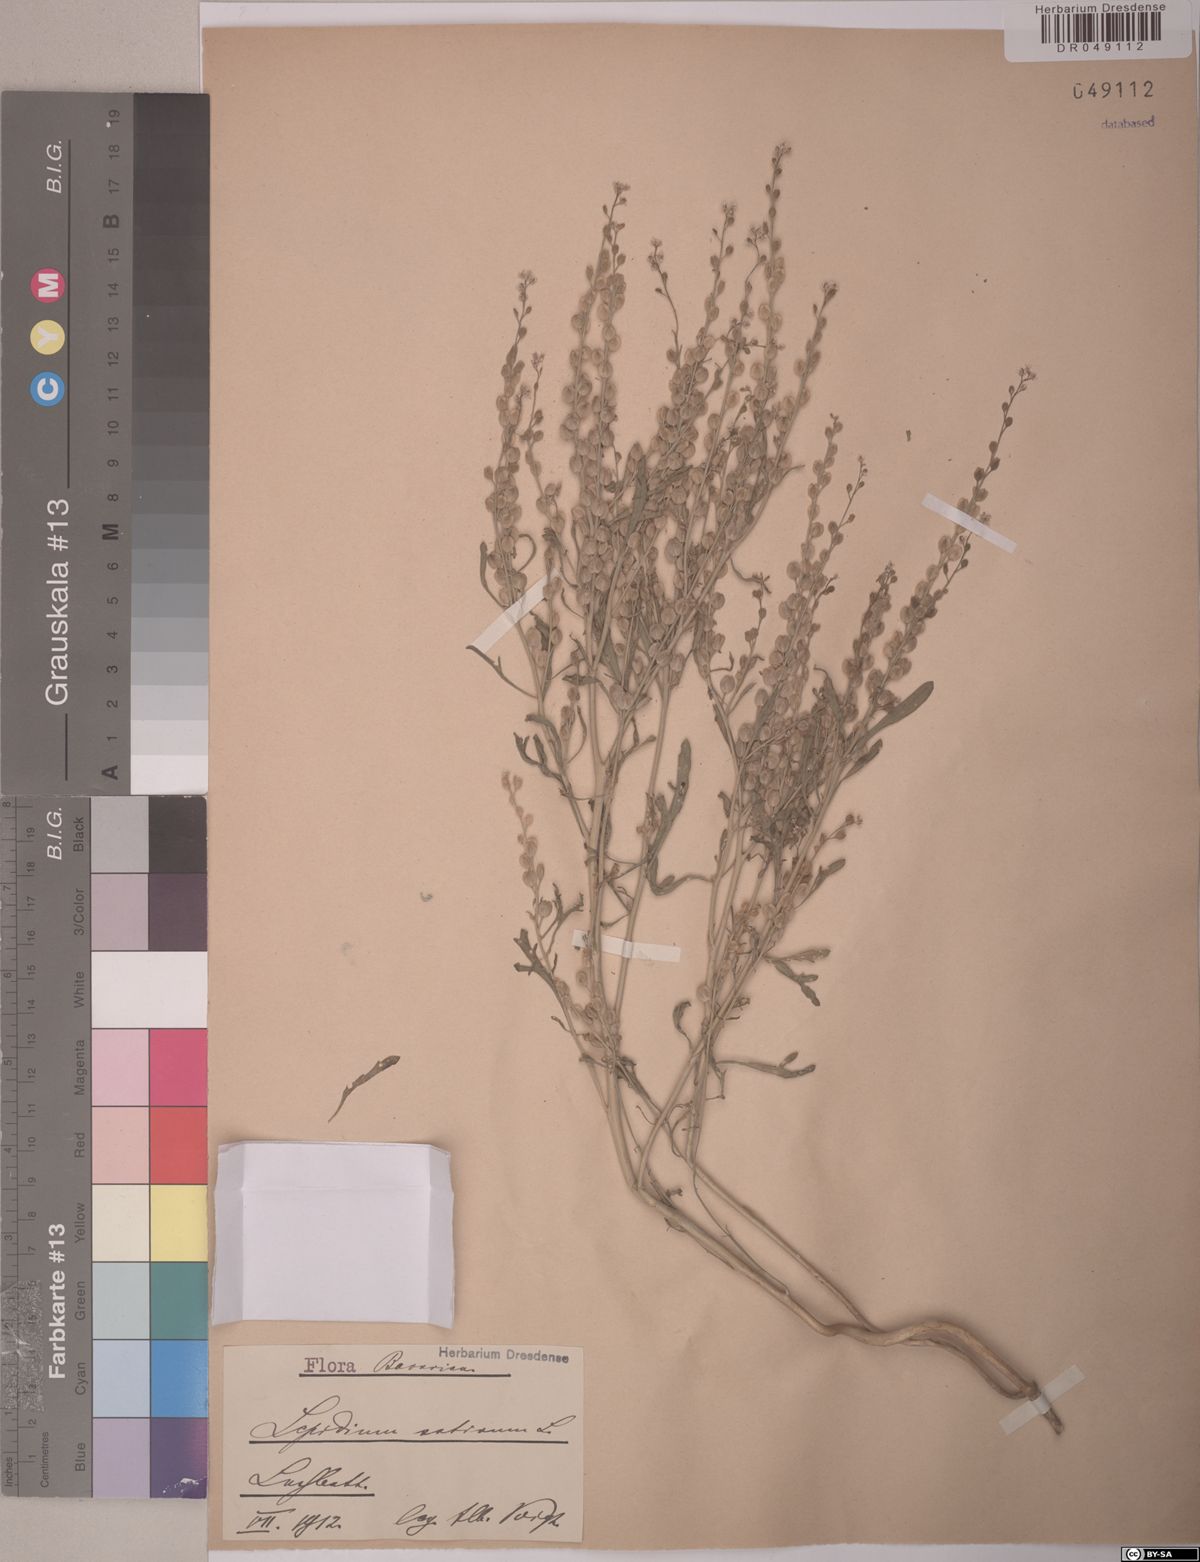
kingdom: Plantae
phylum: Tracheophyta
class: Magnoliopsida
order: Brassicales
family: Brassicaceae
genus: Lepidium
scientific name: Lepidium sativum
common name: Garden cress
